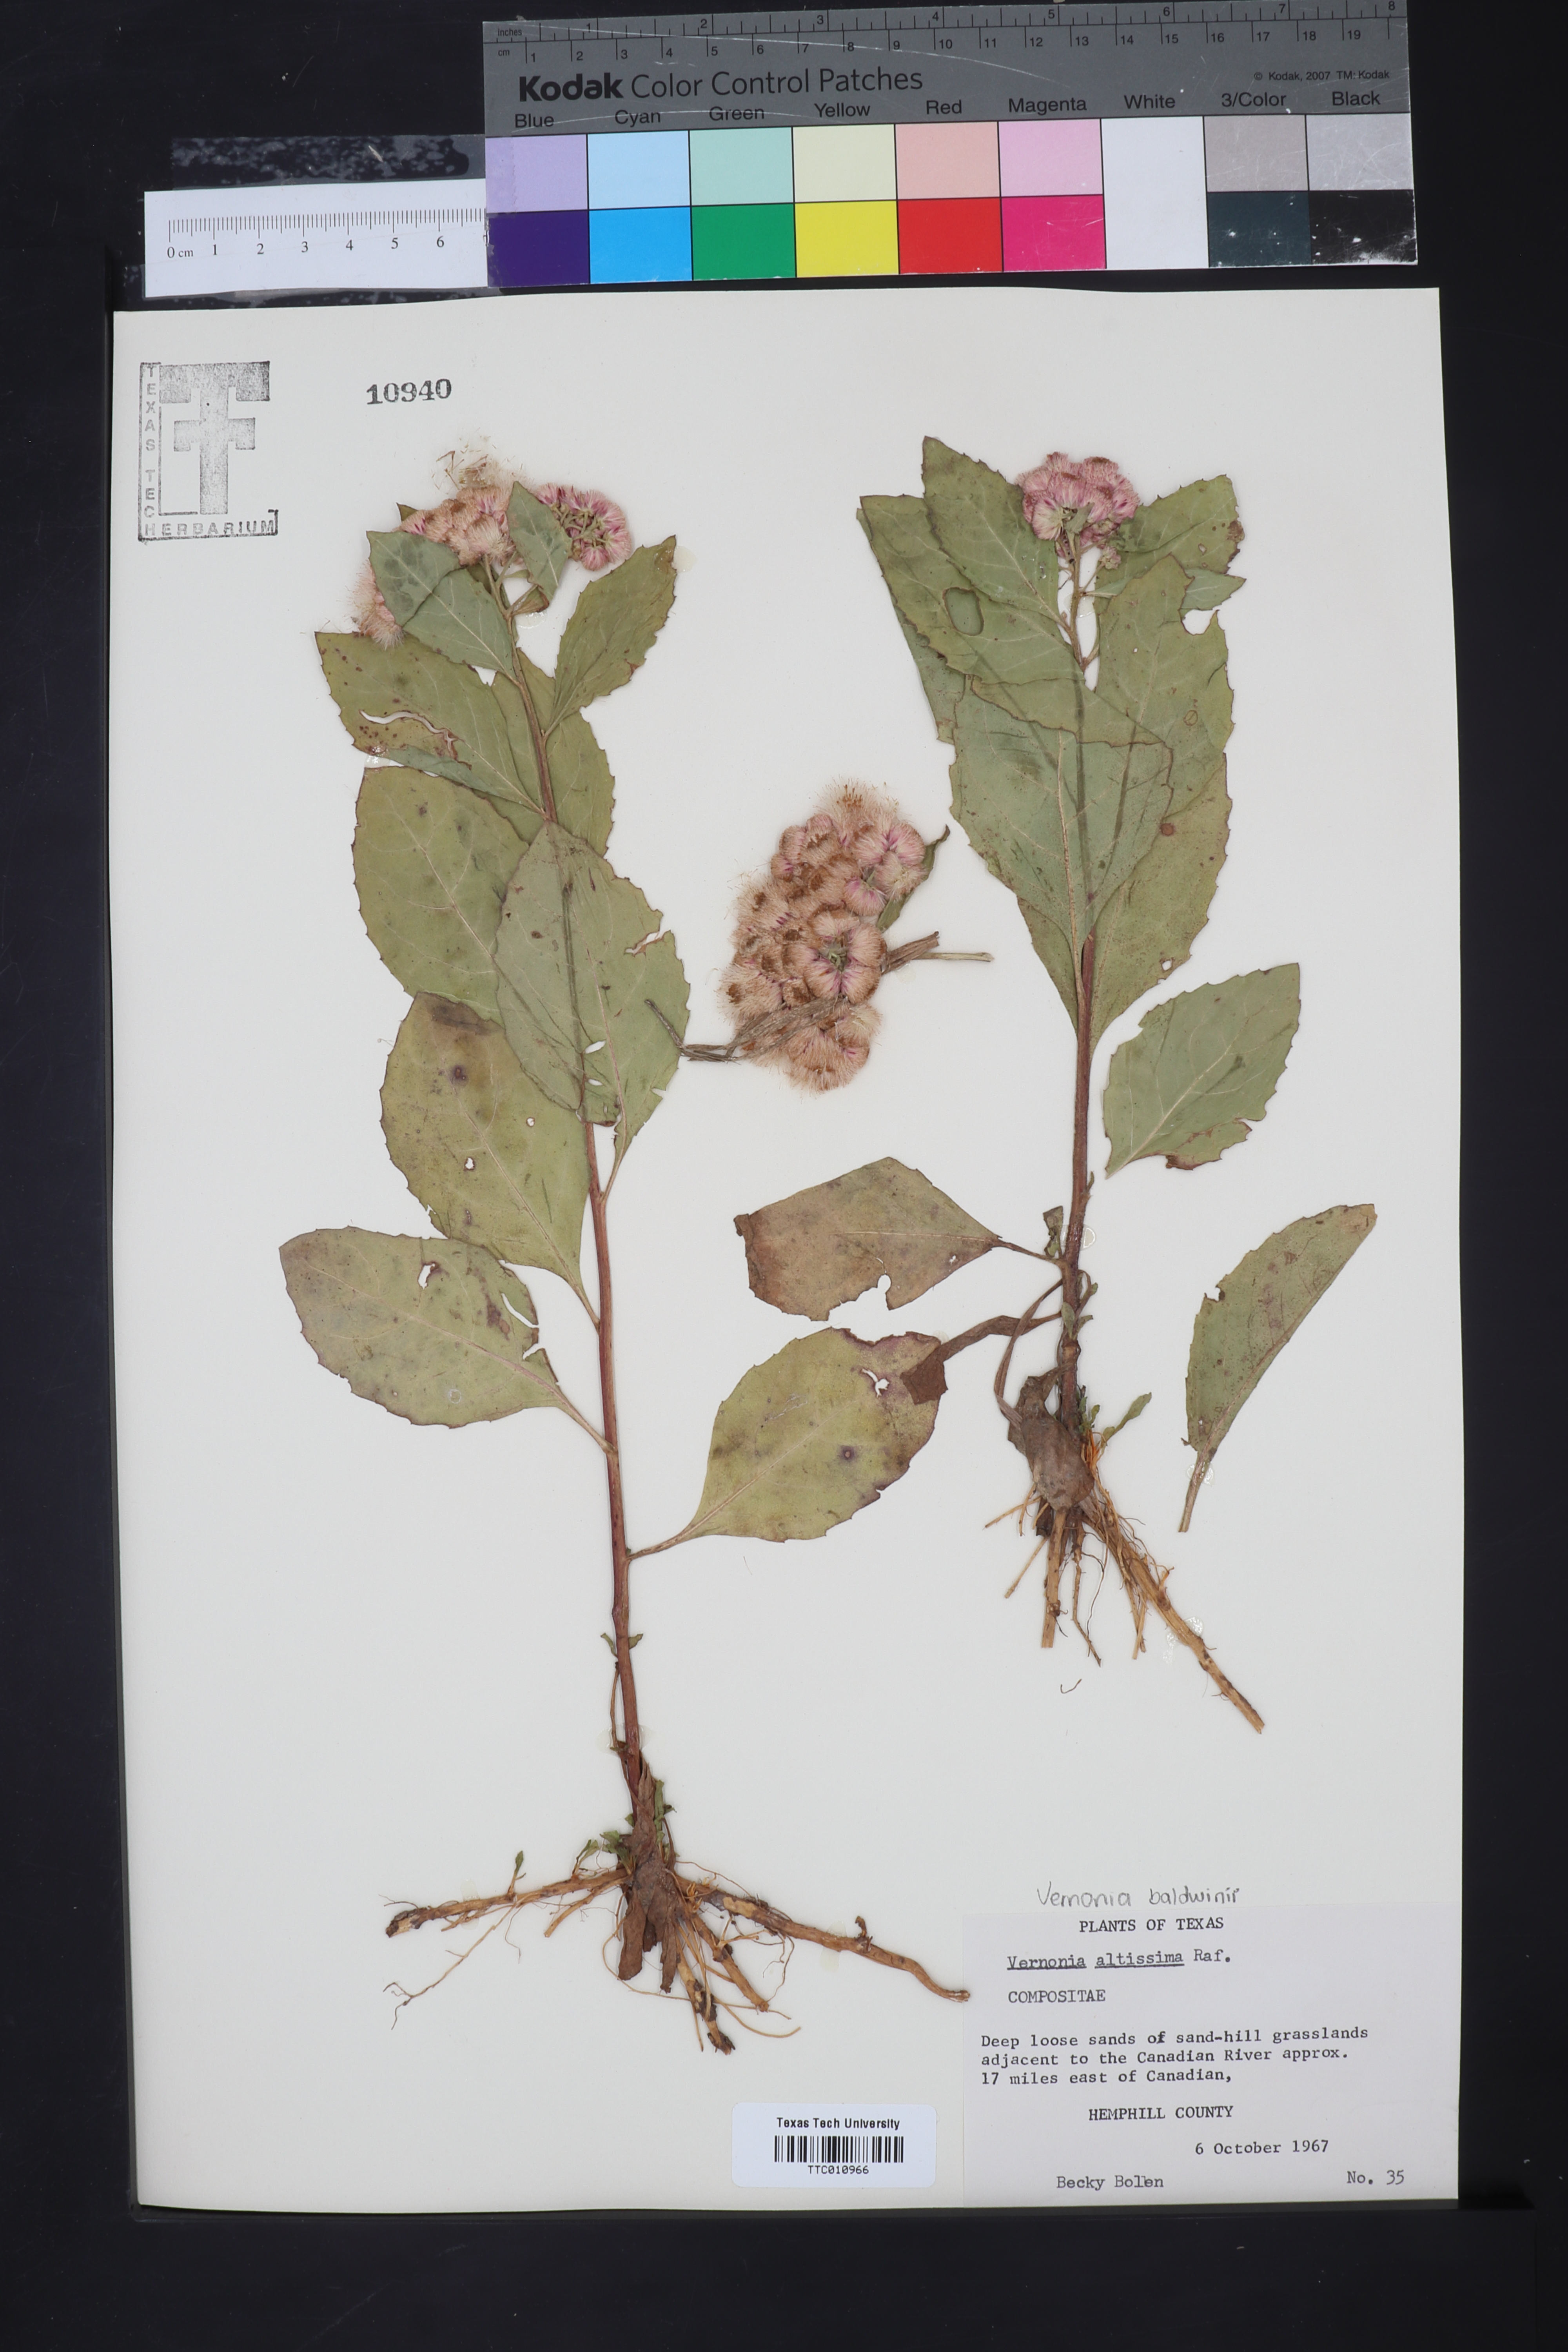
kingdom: Plantae
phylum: Tracheophyta
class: Magnoliopsida
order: Asterales
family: Asteraceae
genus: Vernonia
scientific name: Vernonia gigantea
